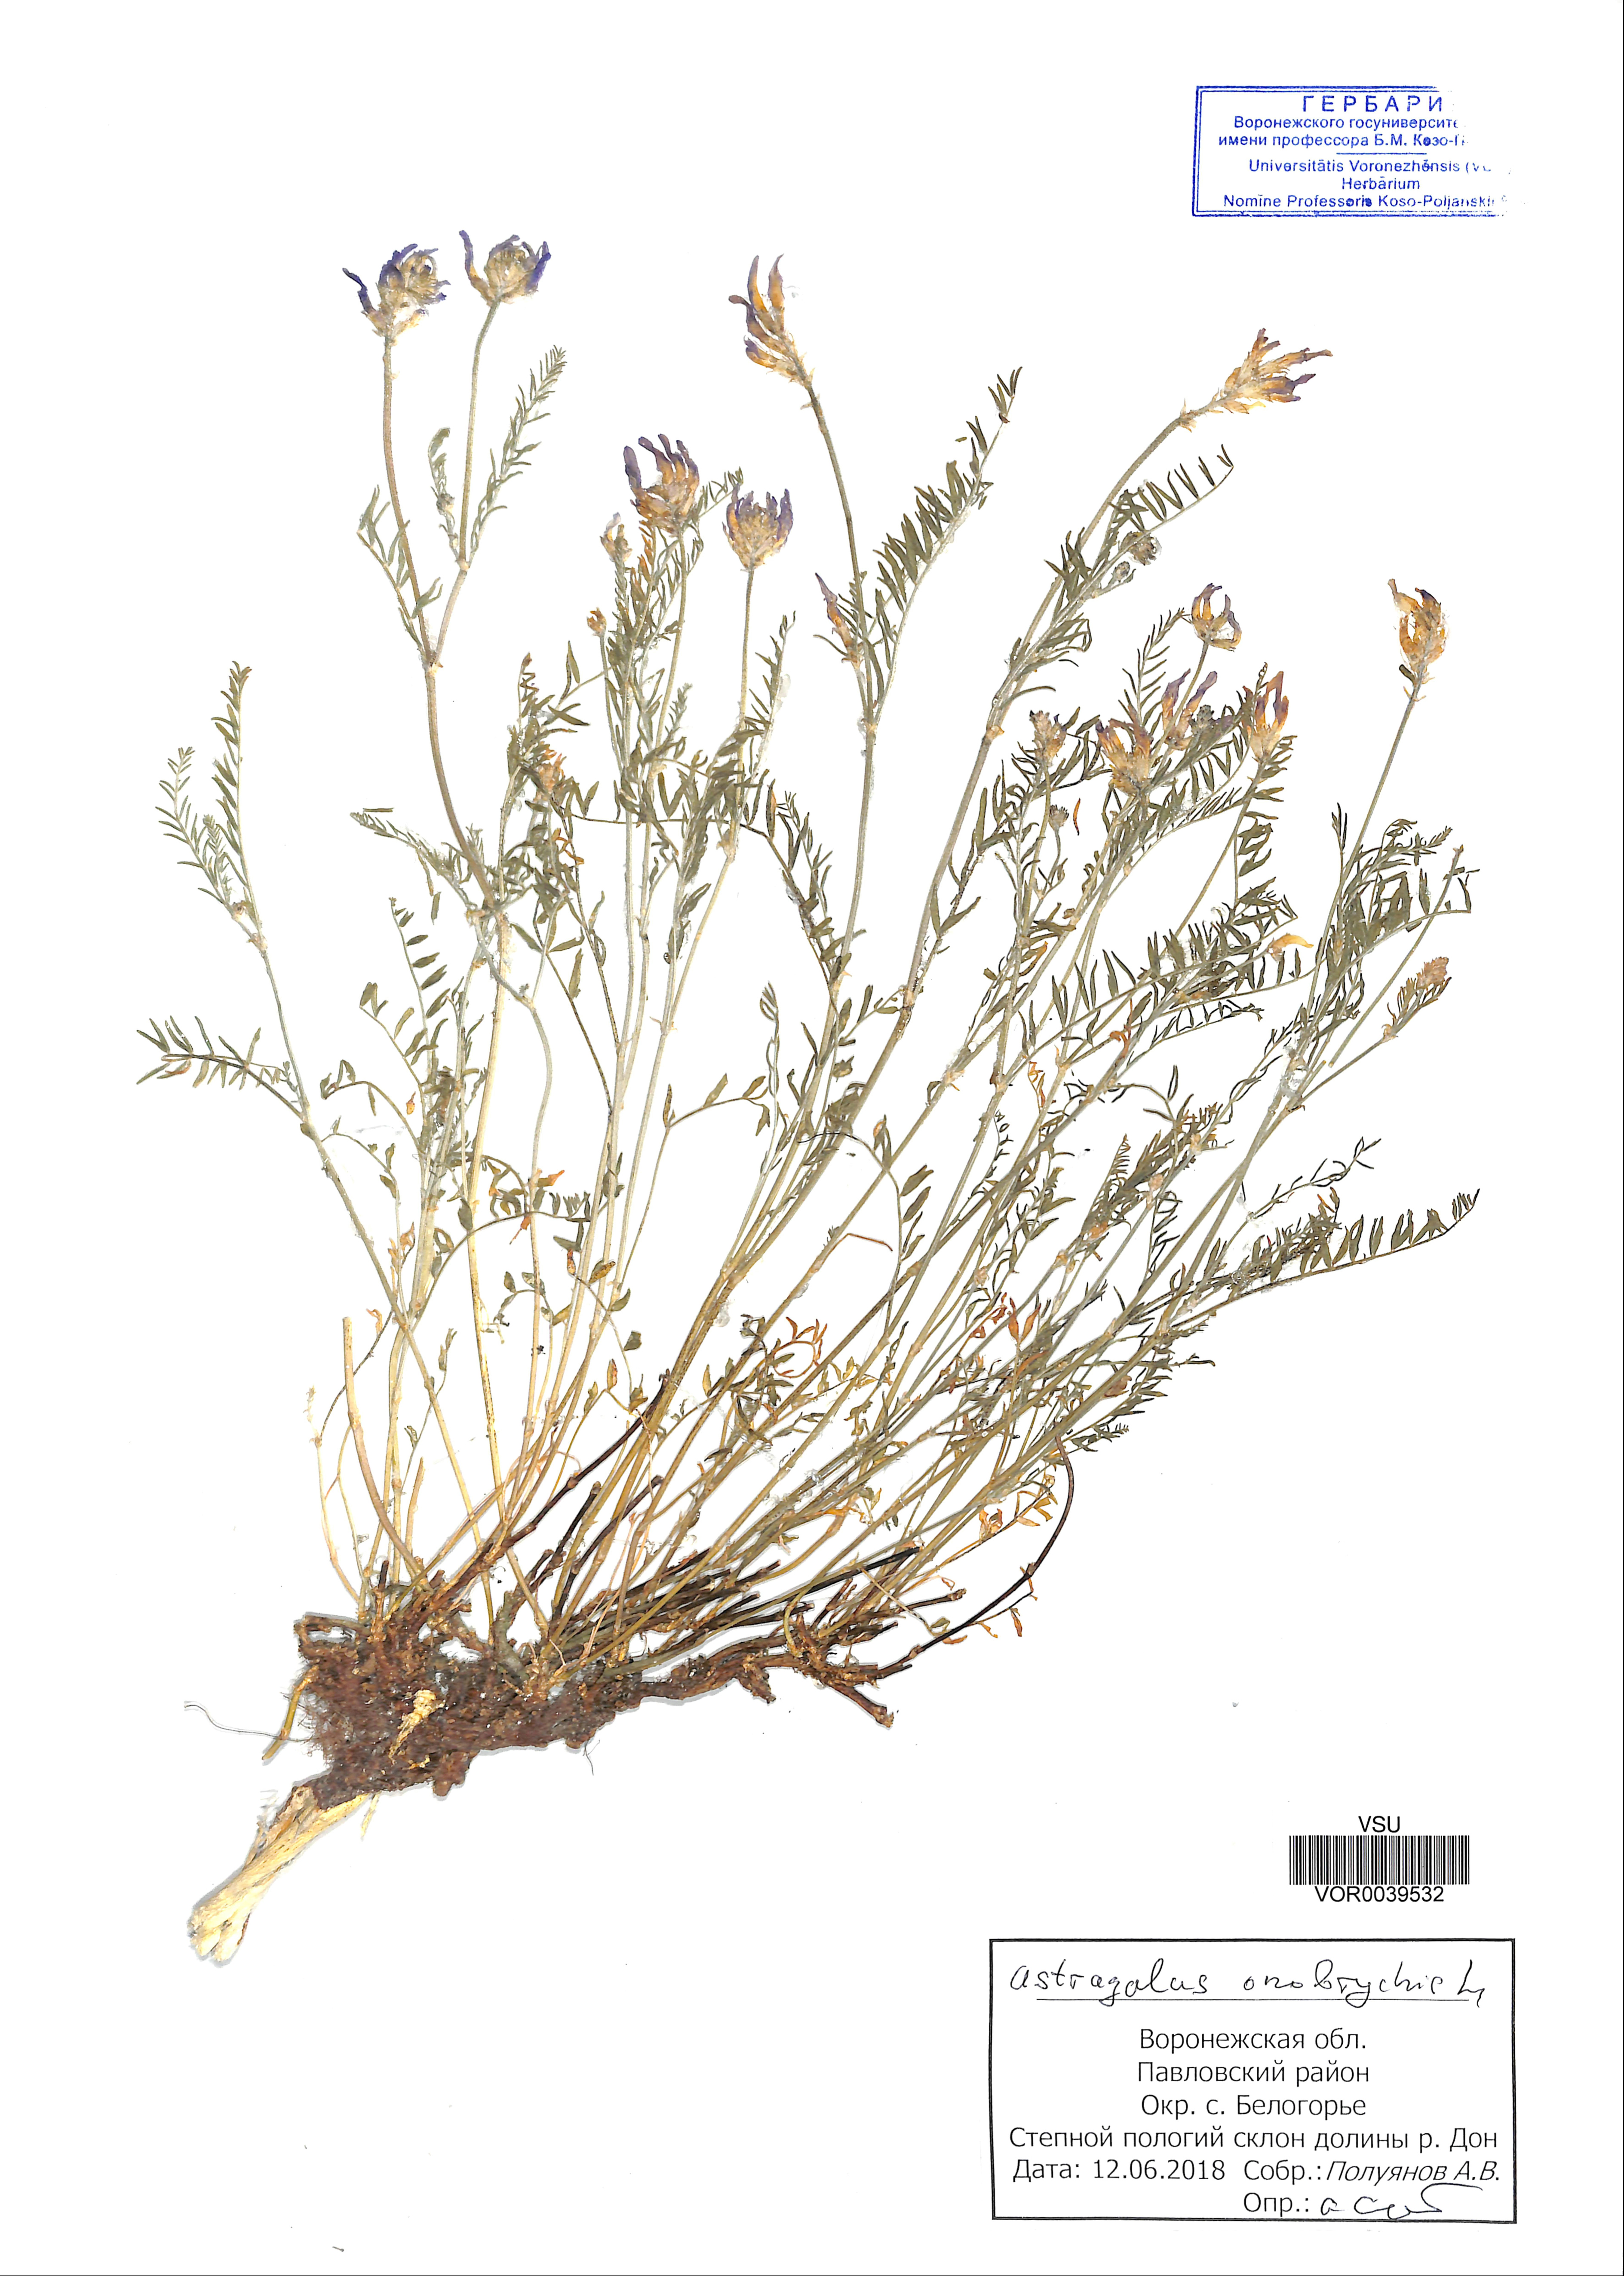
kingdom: Plantae
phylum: Tracheophyta
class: Magnoliopsida
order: Fabales
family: Fabaceae
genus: Astragalus
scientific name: Astragalus onobrychis
